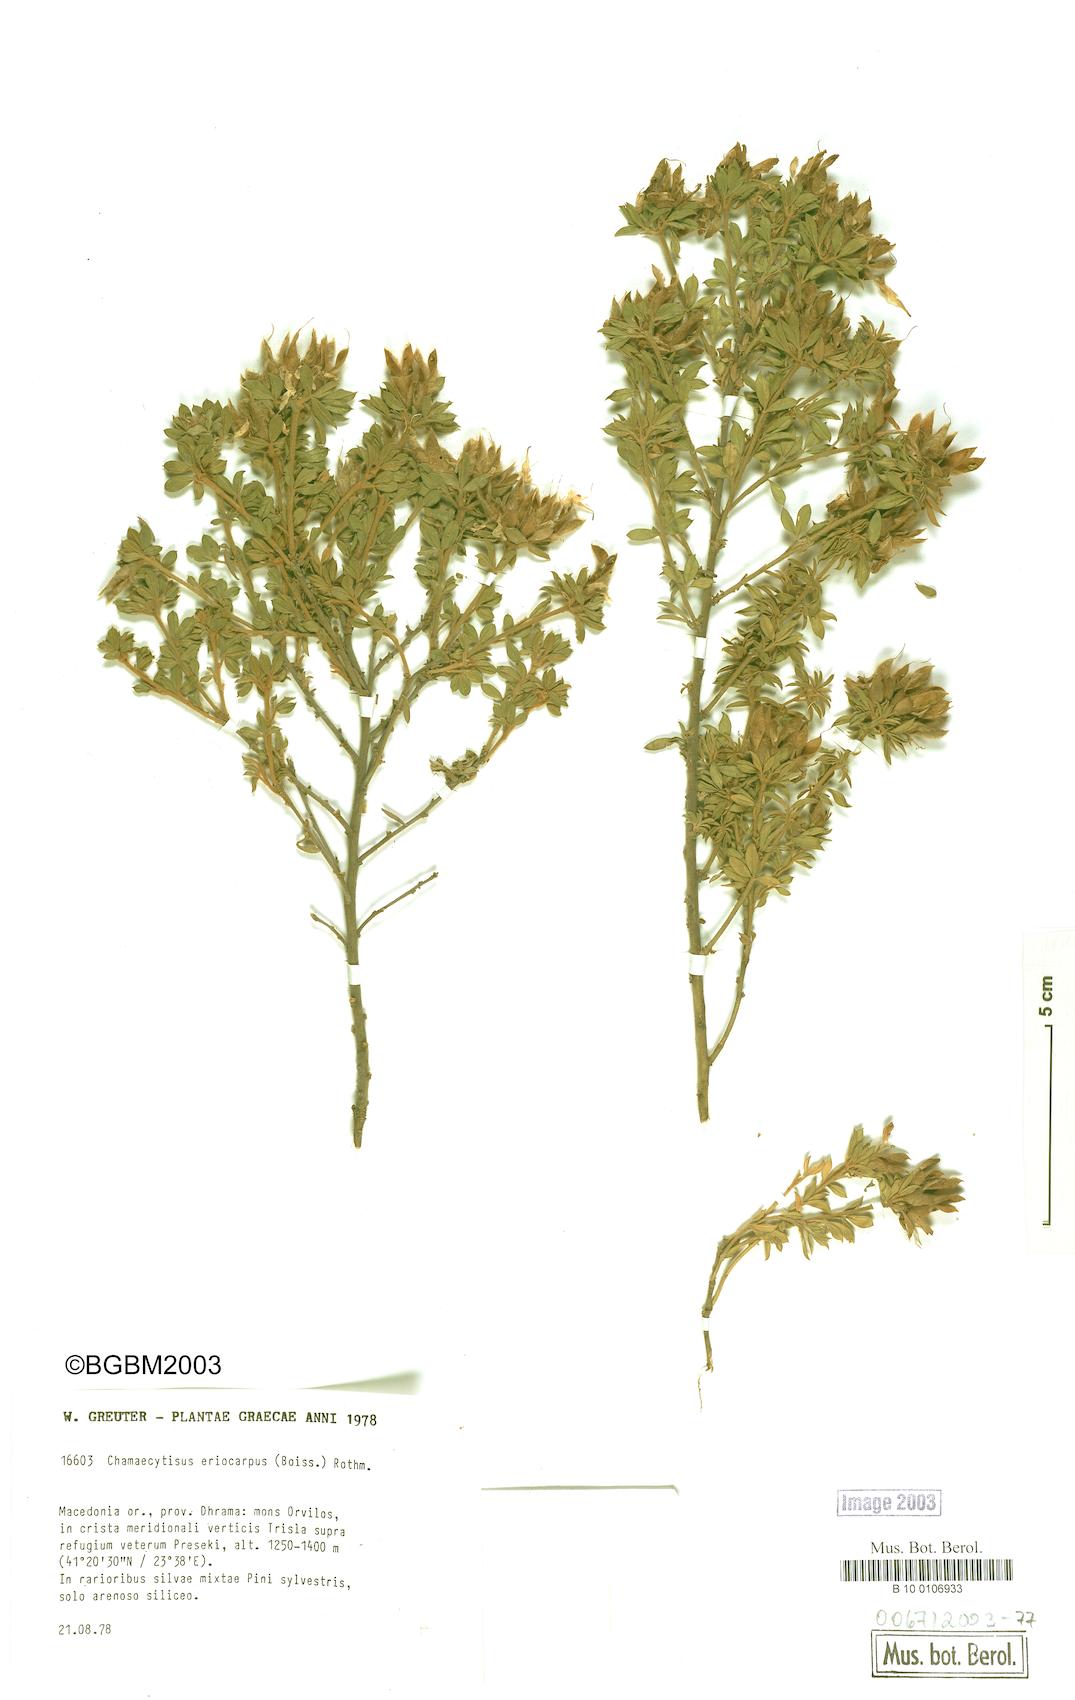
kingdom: Plantae
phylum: Tracheophyta
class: Magnoliopsida
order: Fabales
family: Fabaceae
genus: Chamaecytisus
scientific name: Chamaecytisus eriocarpus
